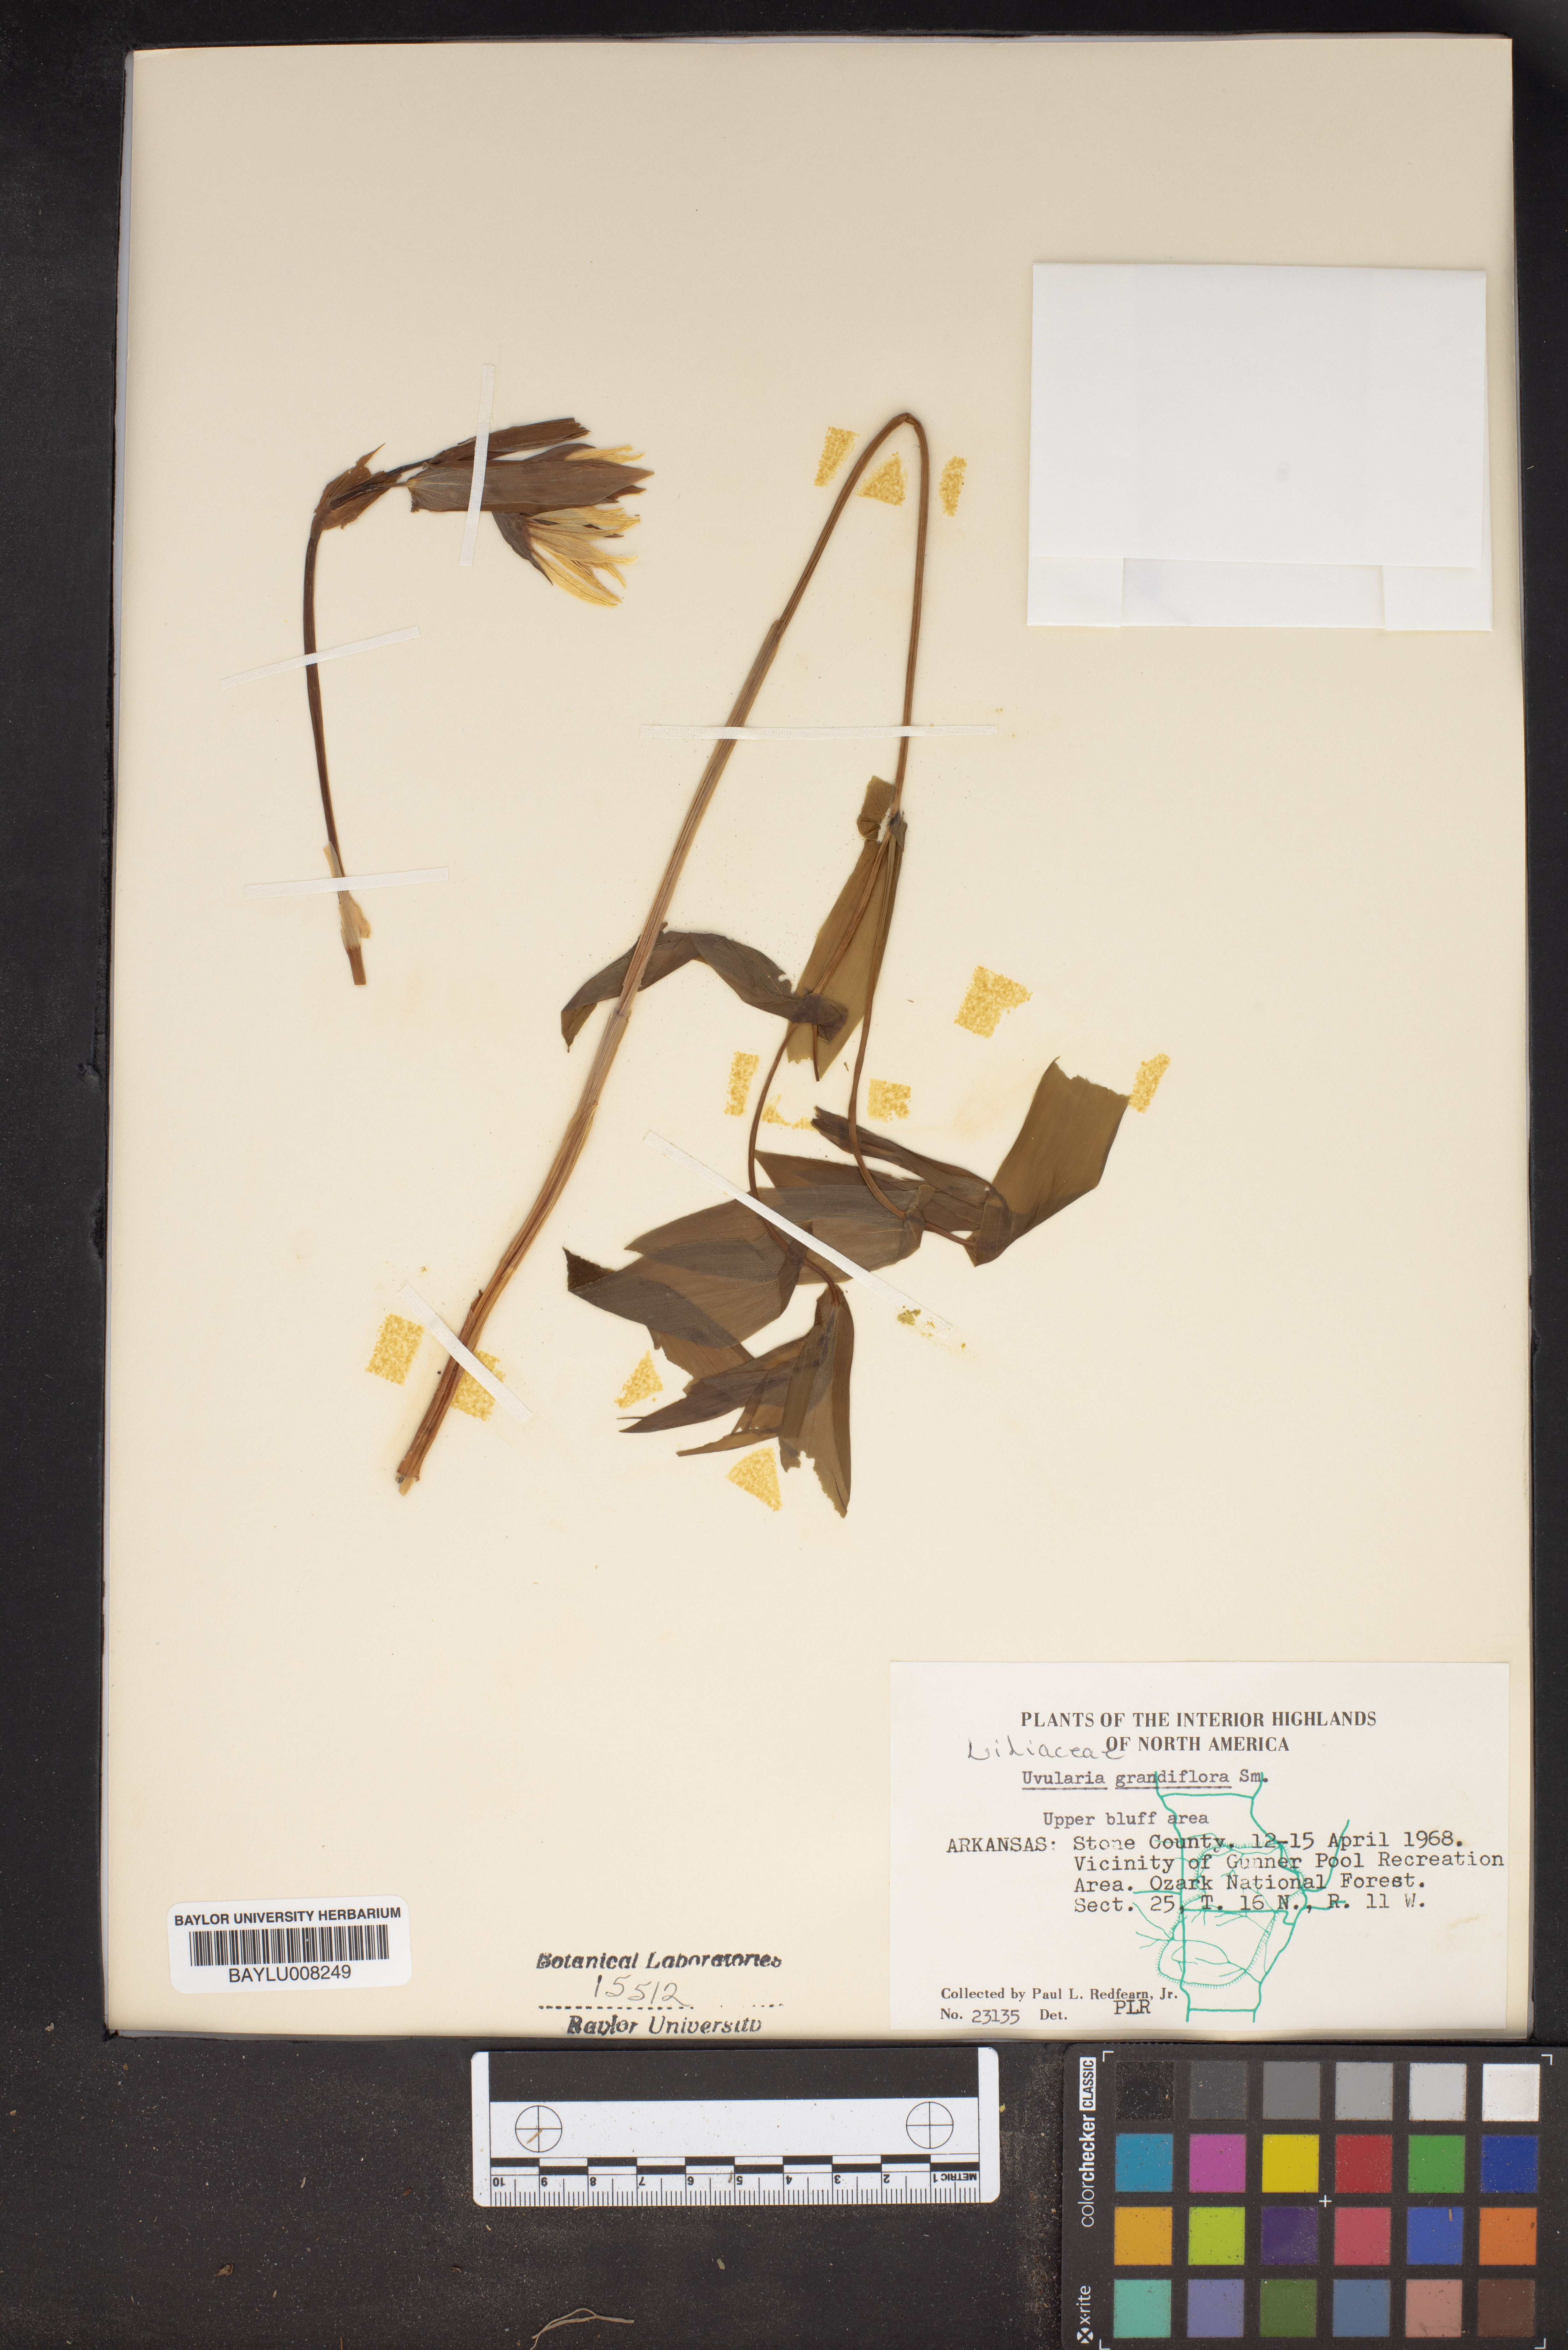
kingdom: Plantae
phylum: Tracheophyta
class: Liliopsida
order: Liliales
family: Colchicaceae
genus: Uvularia
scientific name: Uvularia grandiflora
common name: Bellwort
